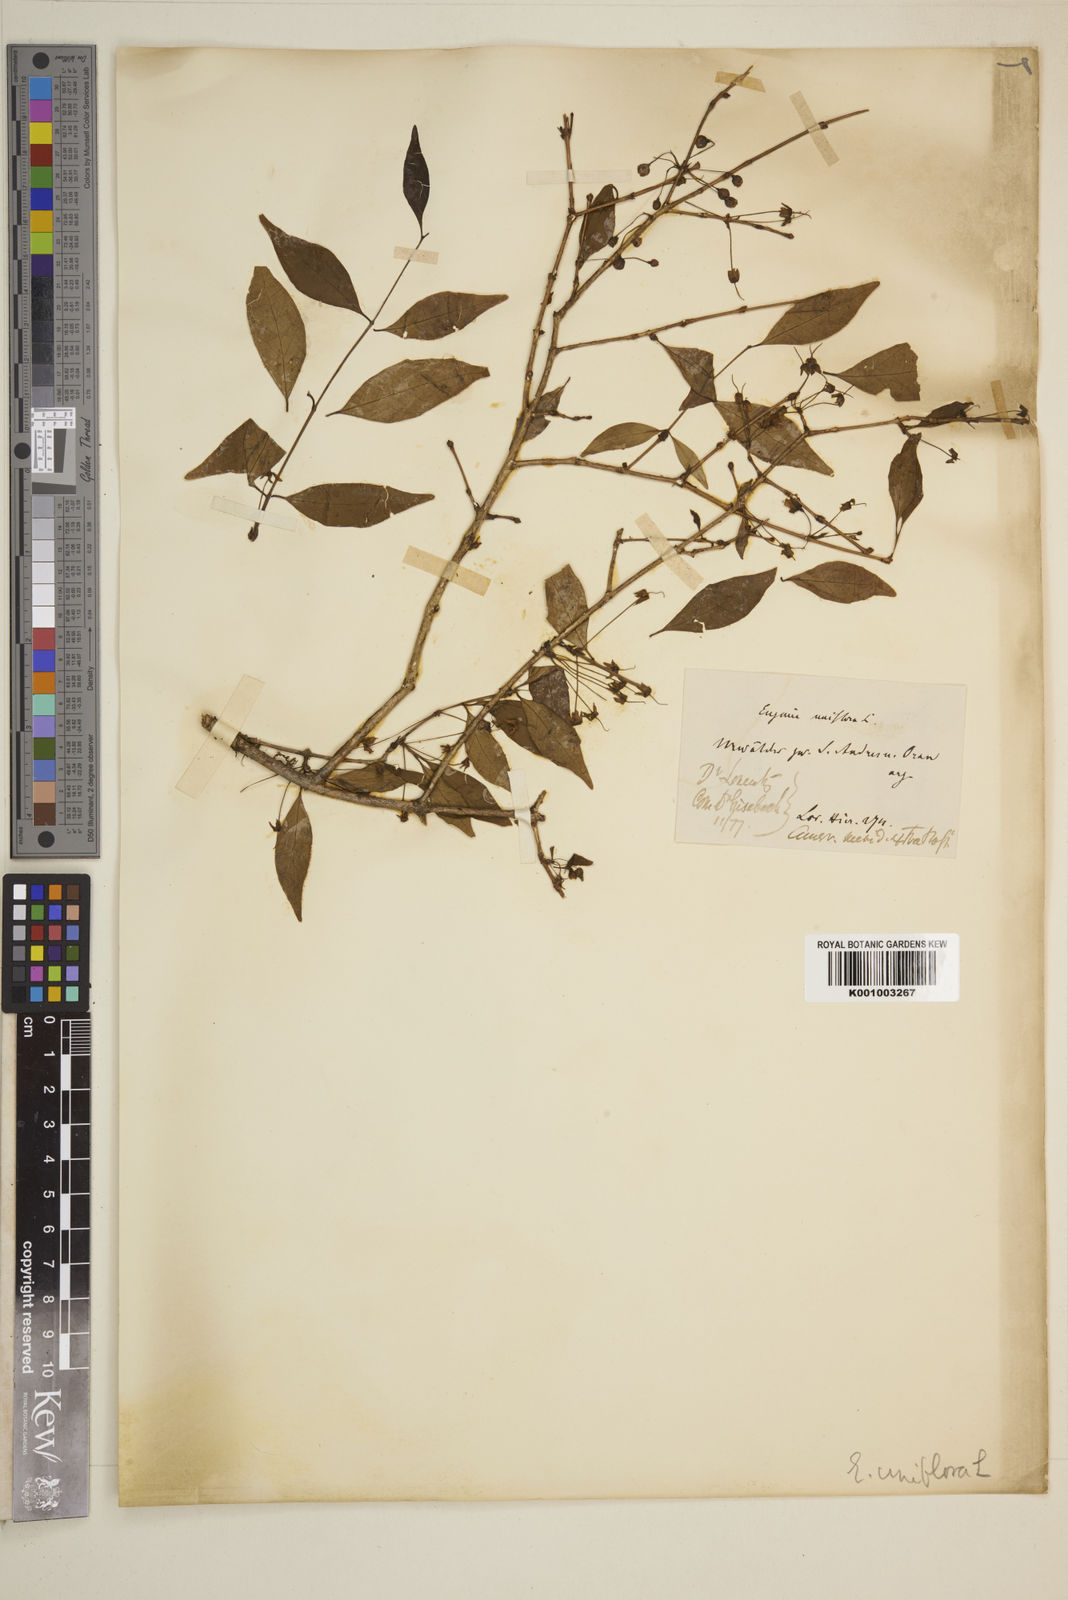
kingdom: Plantae
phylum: Tracheophyta
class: Magnoliopsida
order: Myrtales
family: Myrtaceae
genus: Eugenia
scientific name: Eugenia uniflora
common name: Surinam cherry
